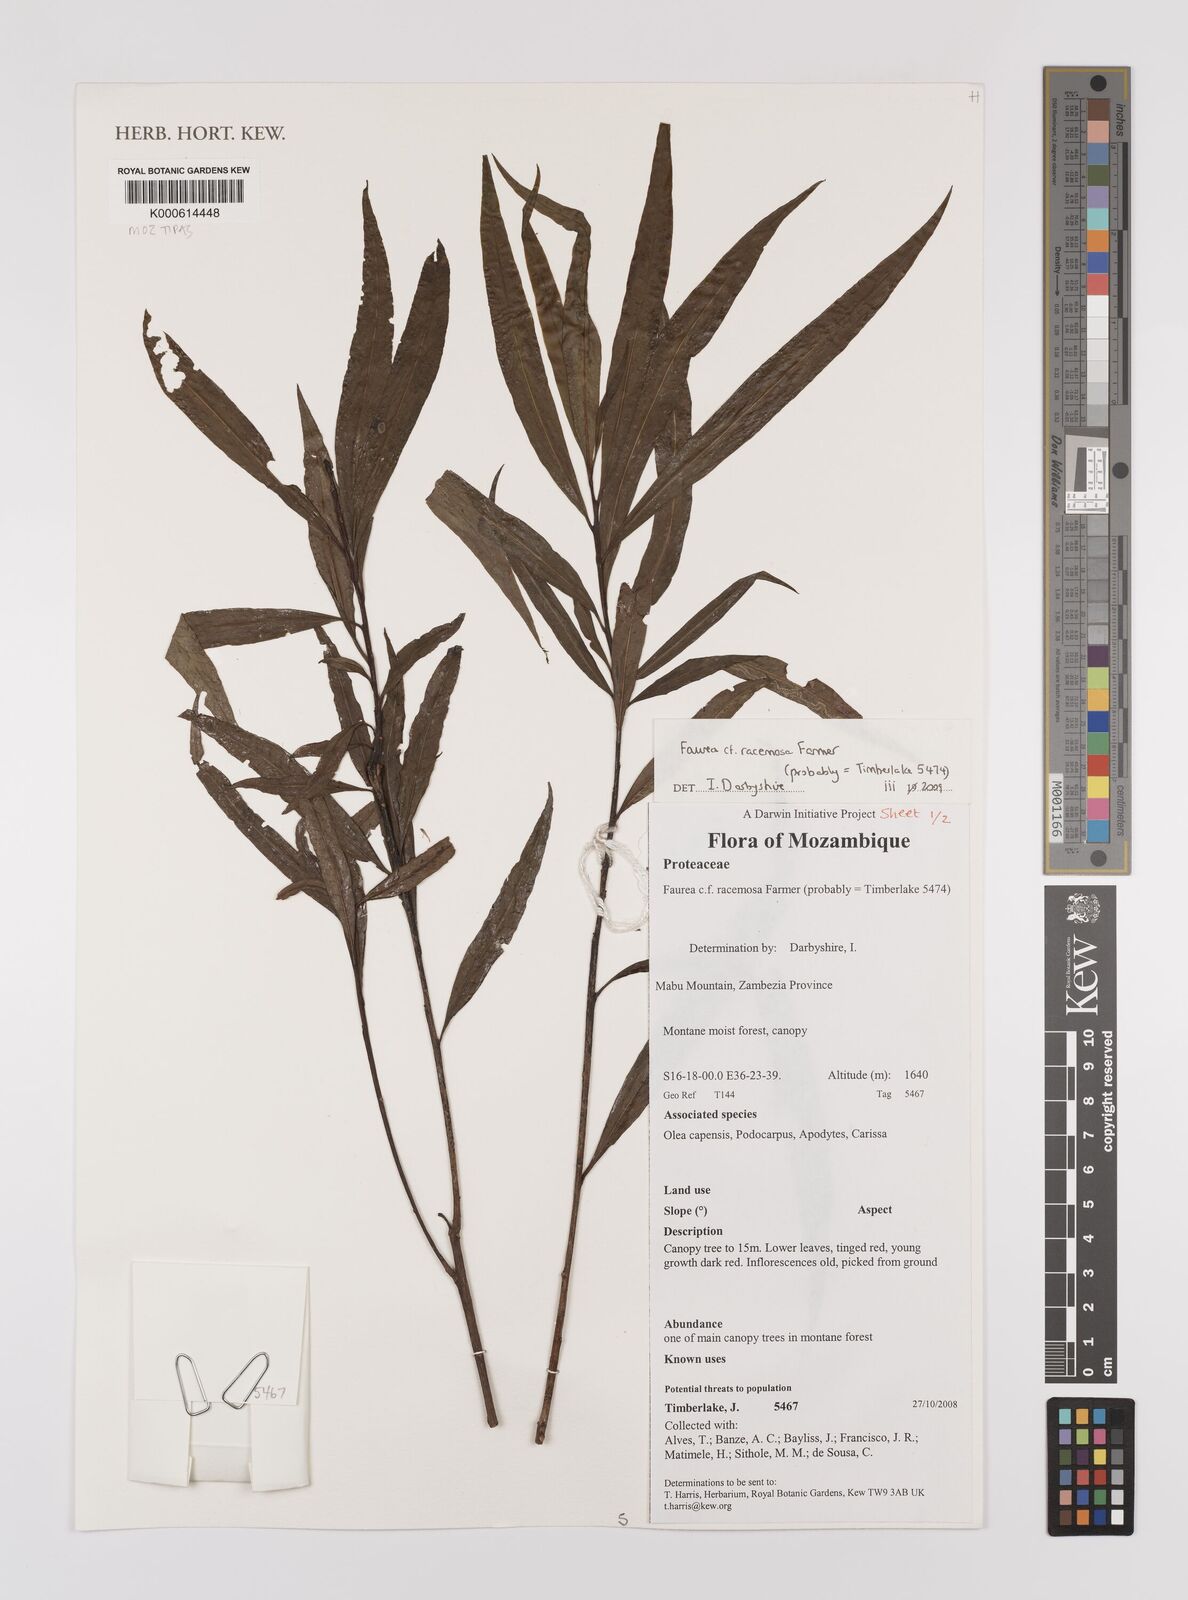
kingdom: Plantae
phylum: Tracheophyta
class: Magnoliopsida
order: Proteales
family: Proteaceae
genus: Faurea
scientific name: Faurea racemosa
